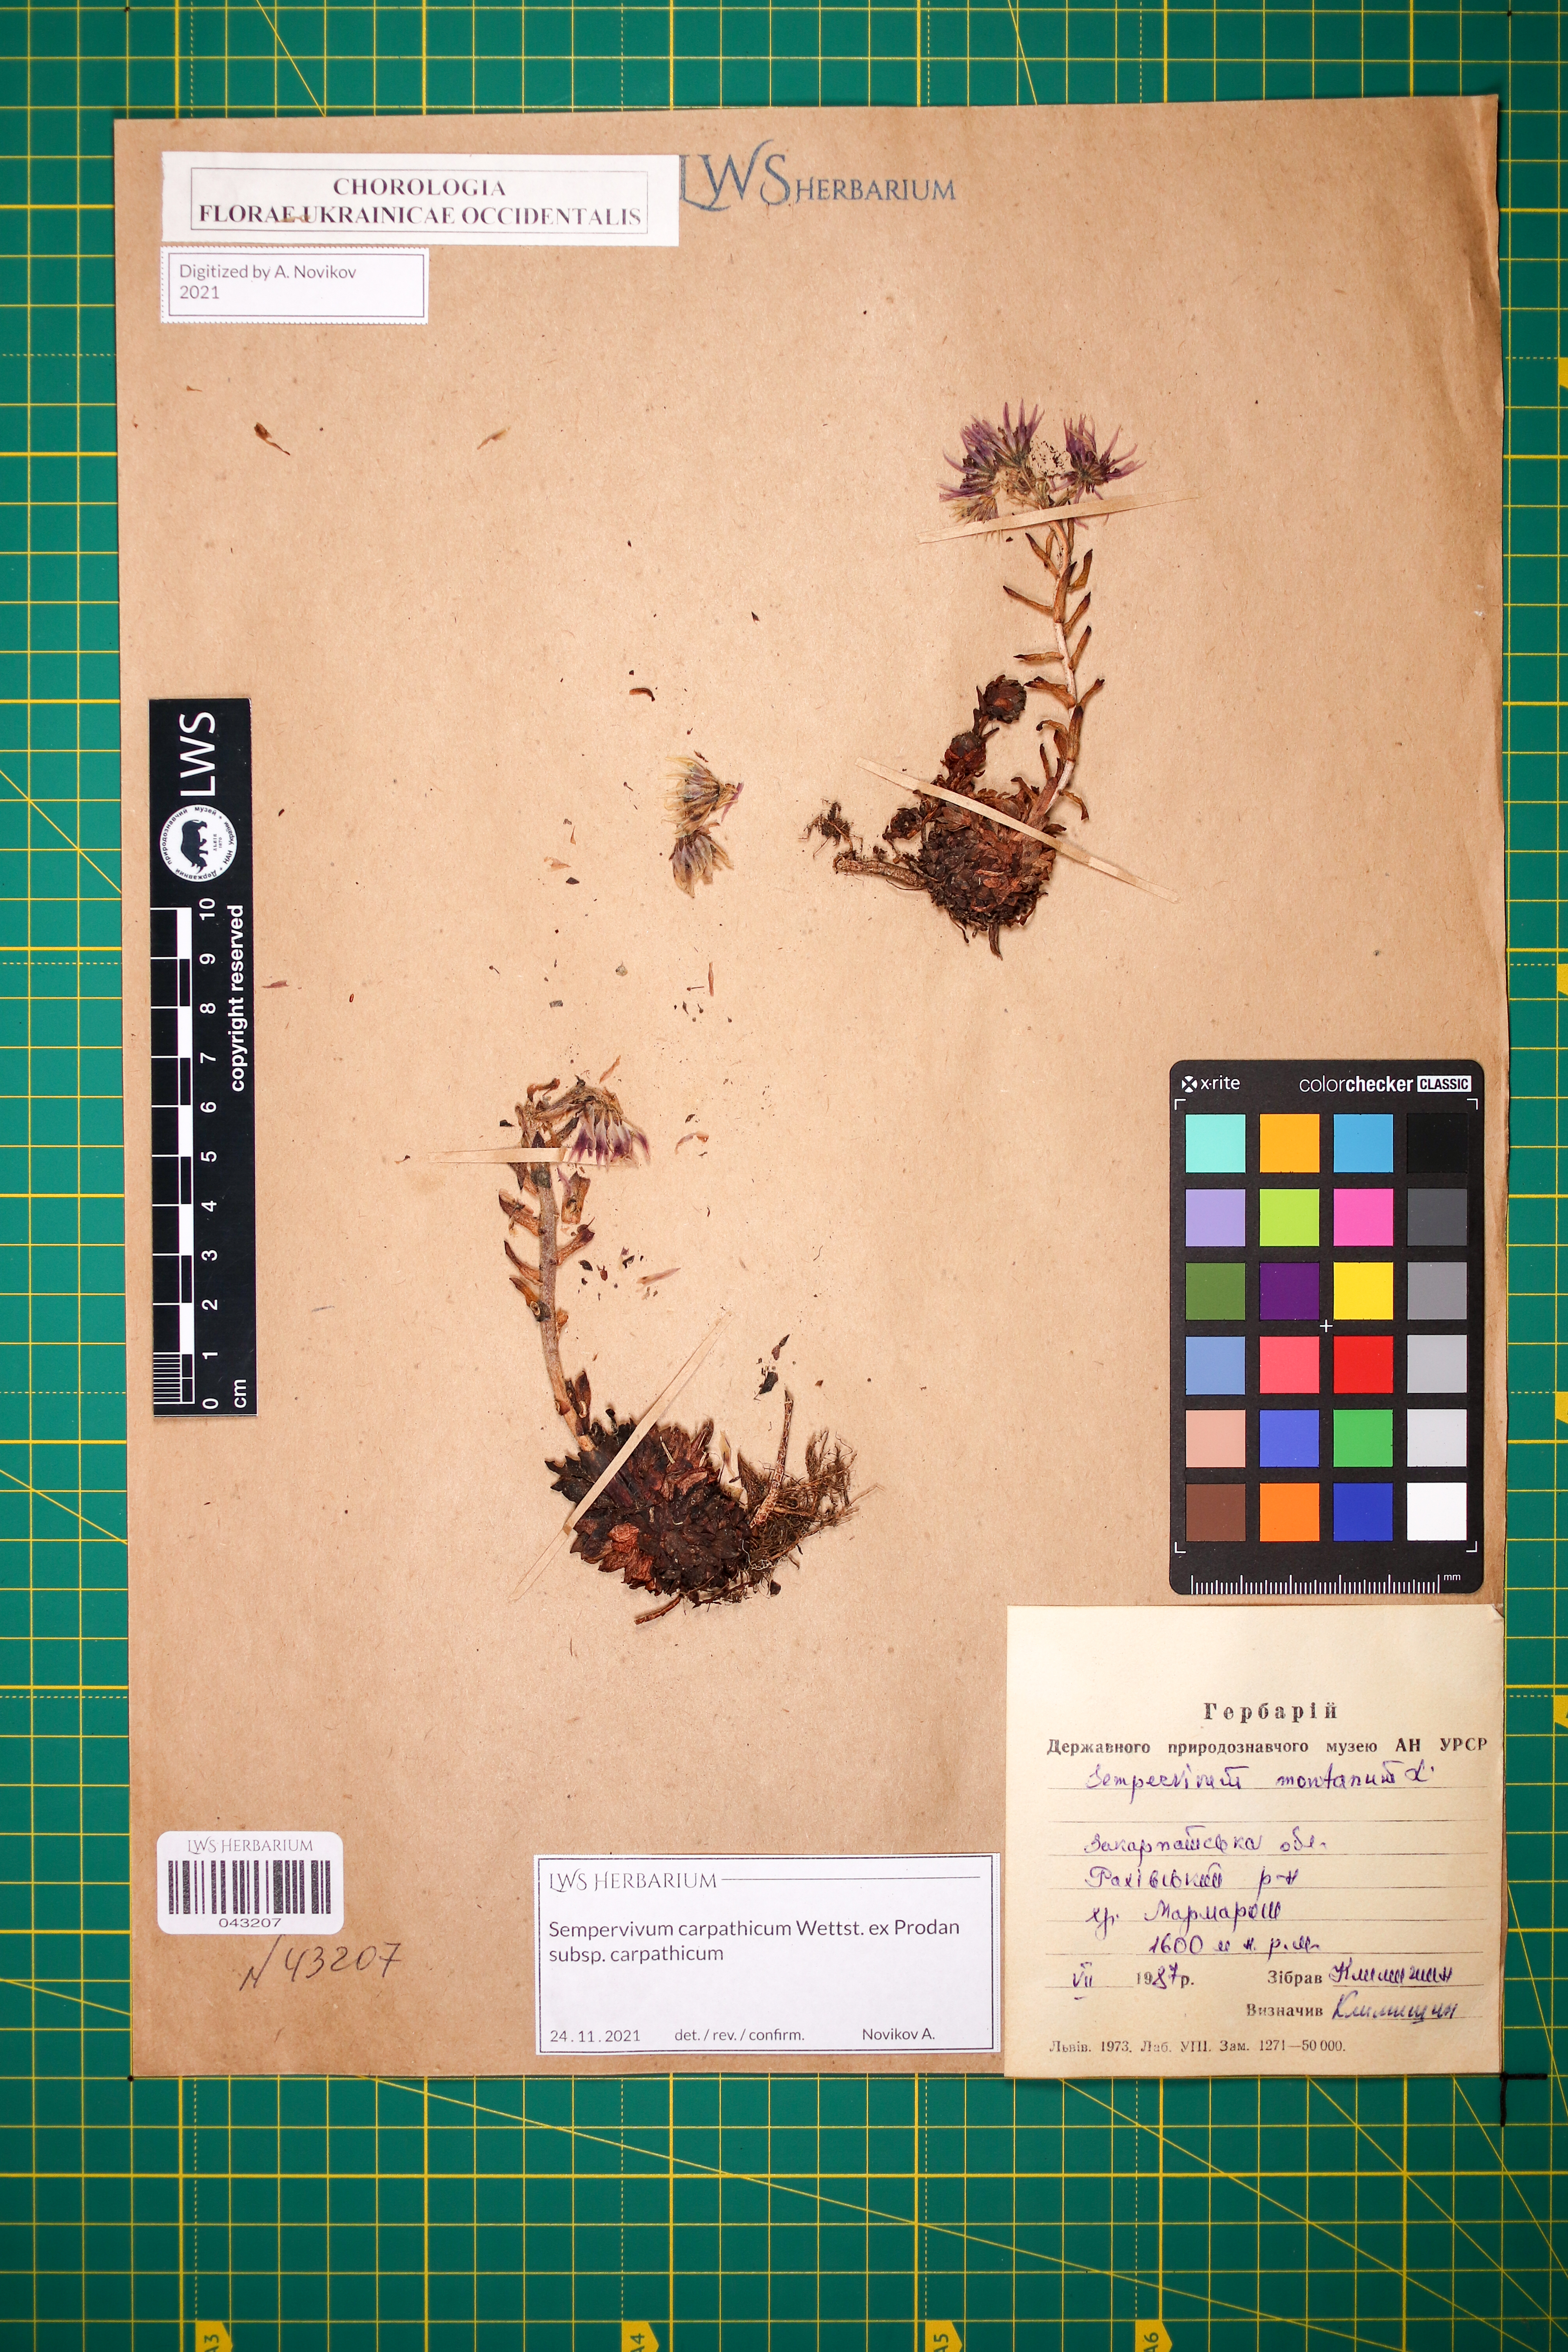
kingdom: Plantae
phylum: Tracheophyta
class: Magnoliopsida
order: Saxifragales
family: Crassulaceae
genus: Sempervivum
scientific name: Sempervivum montanum
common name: Mountain house-leek
